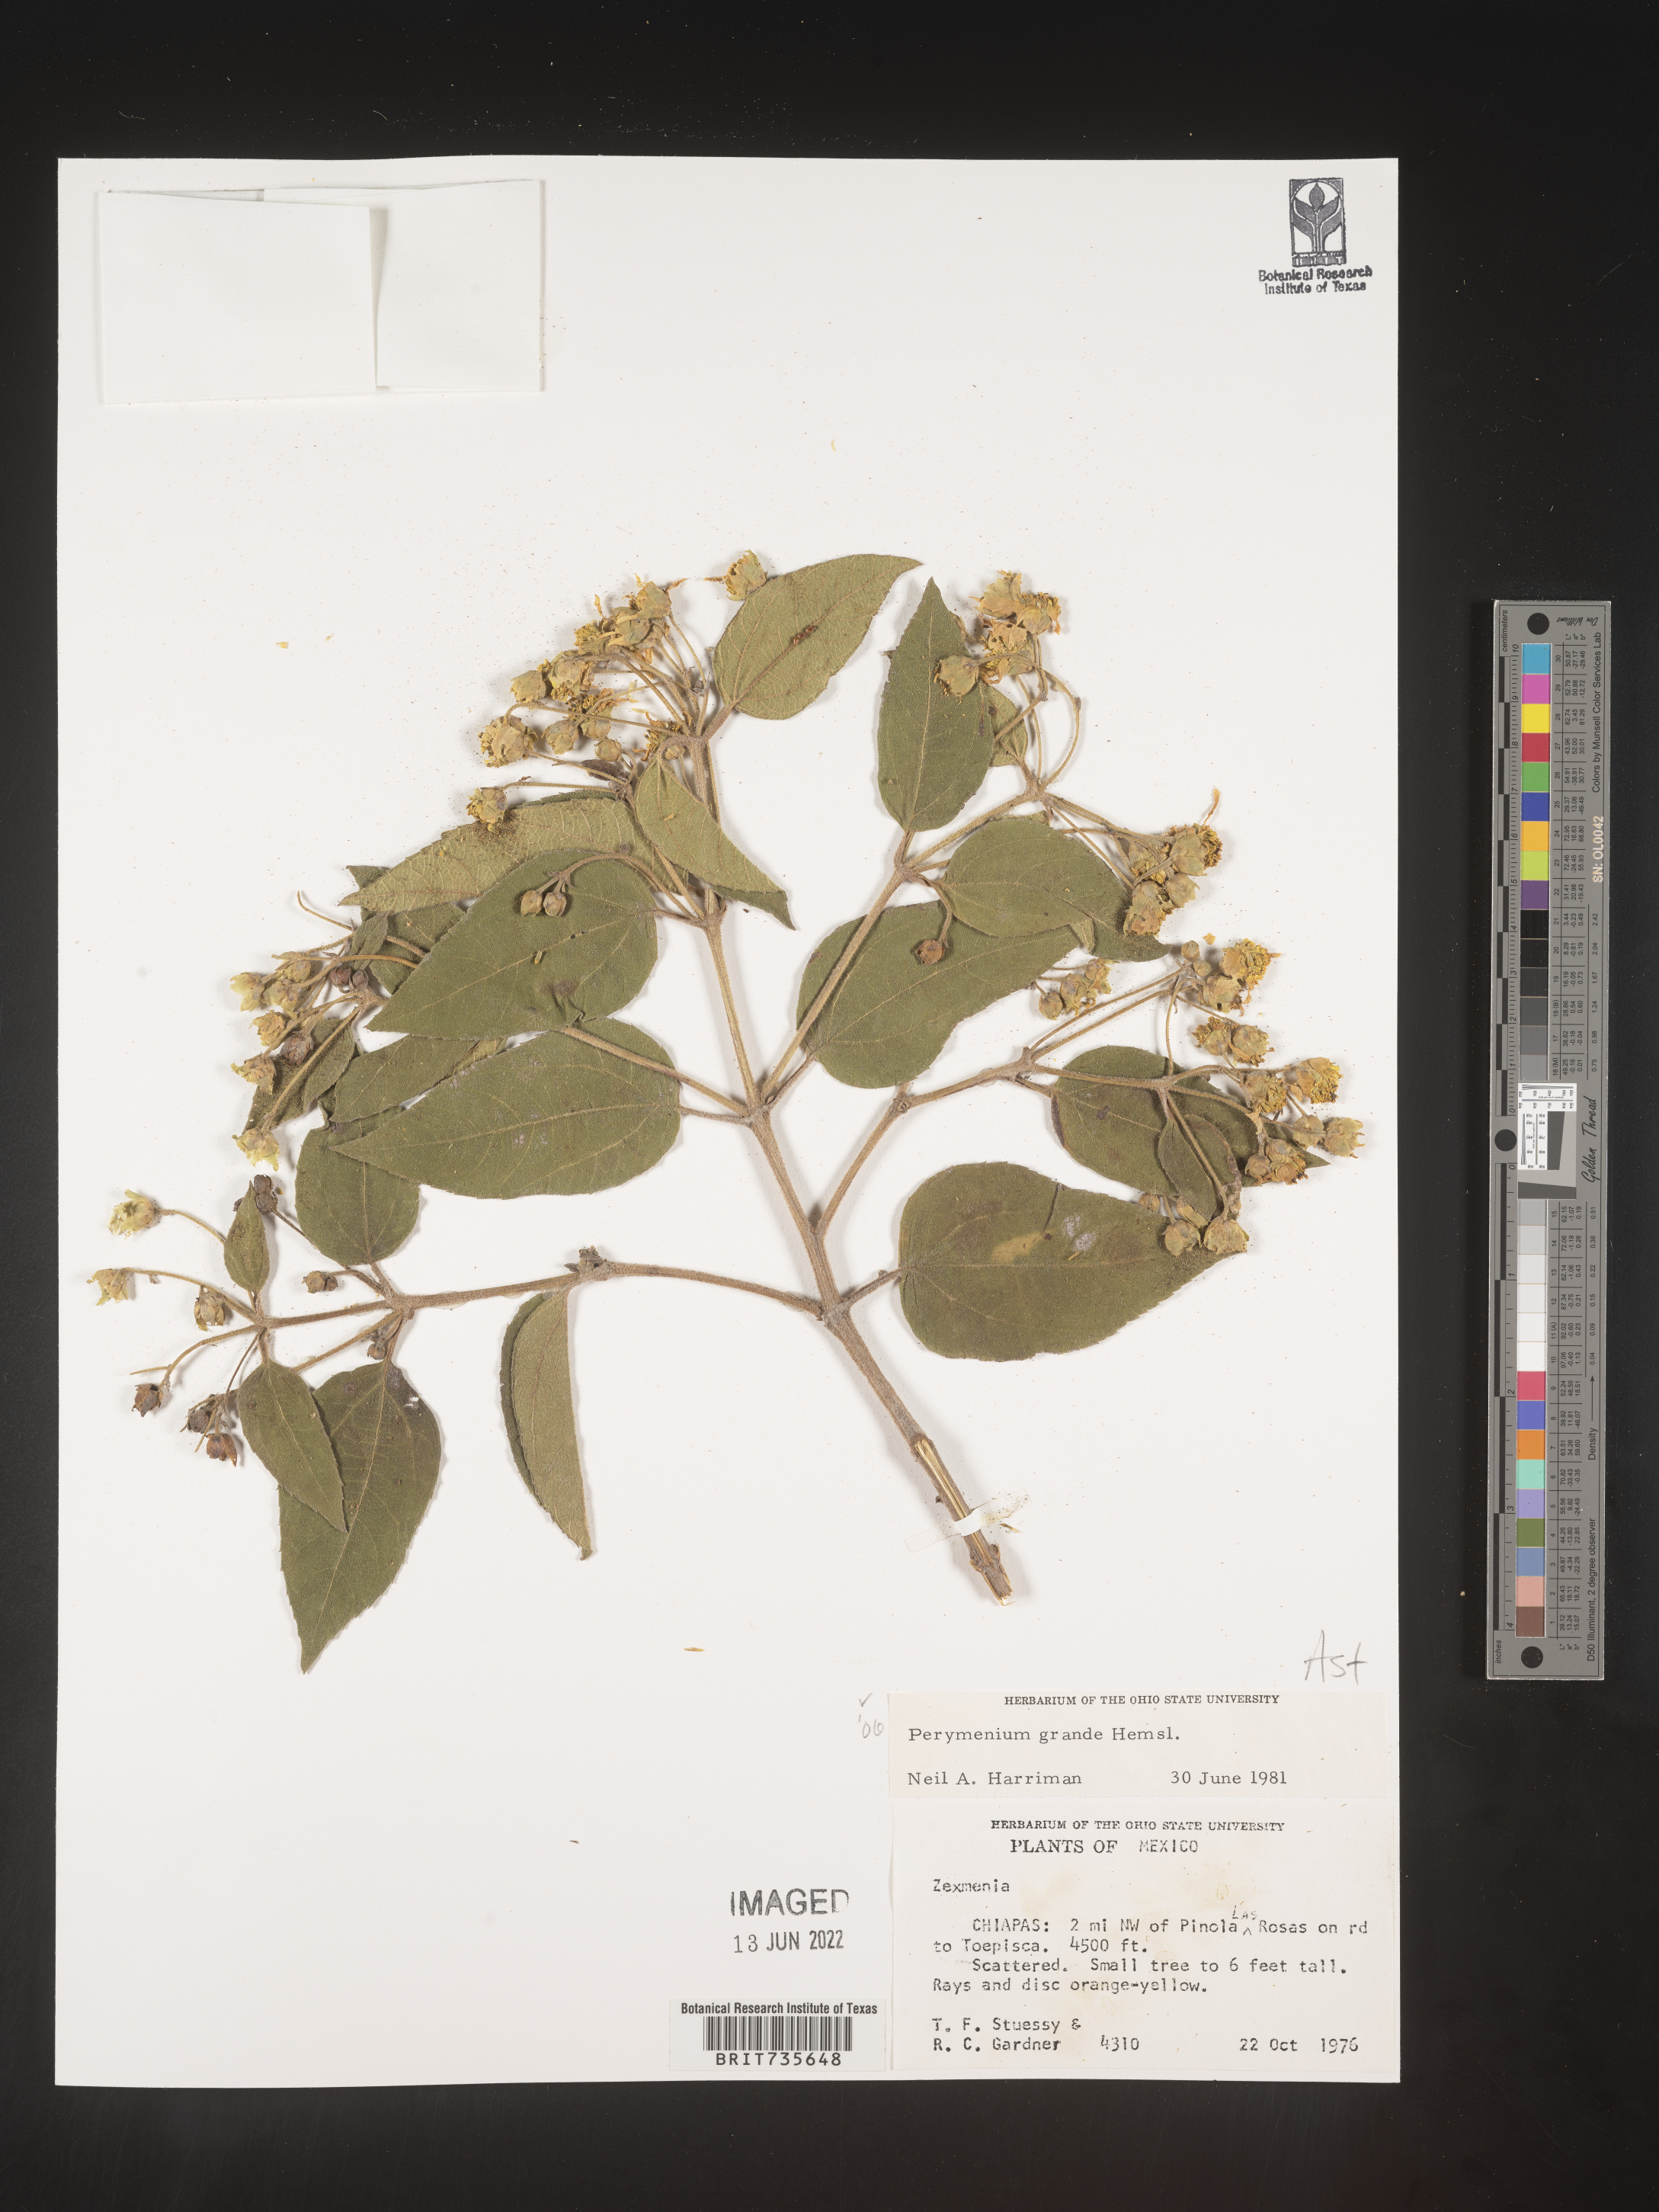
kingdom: Plantae
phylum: Tracheophyta
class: Magnoliopsida
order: Asterales
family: Asteraceae
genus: Perymenium
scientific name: Perymenium
